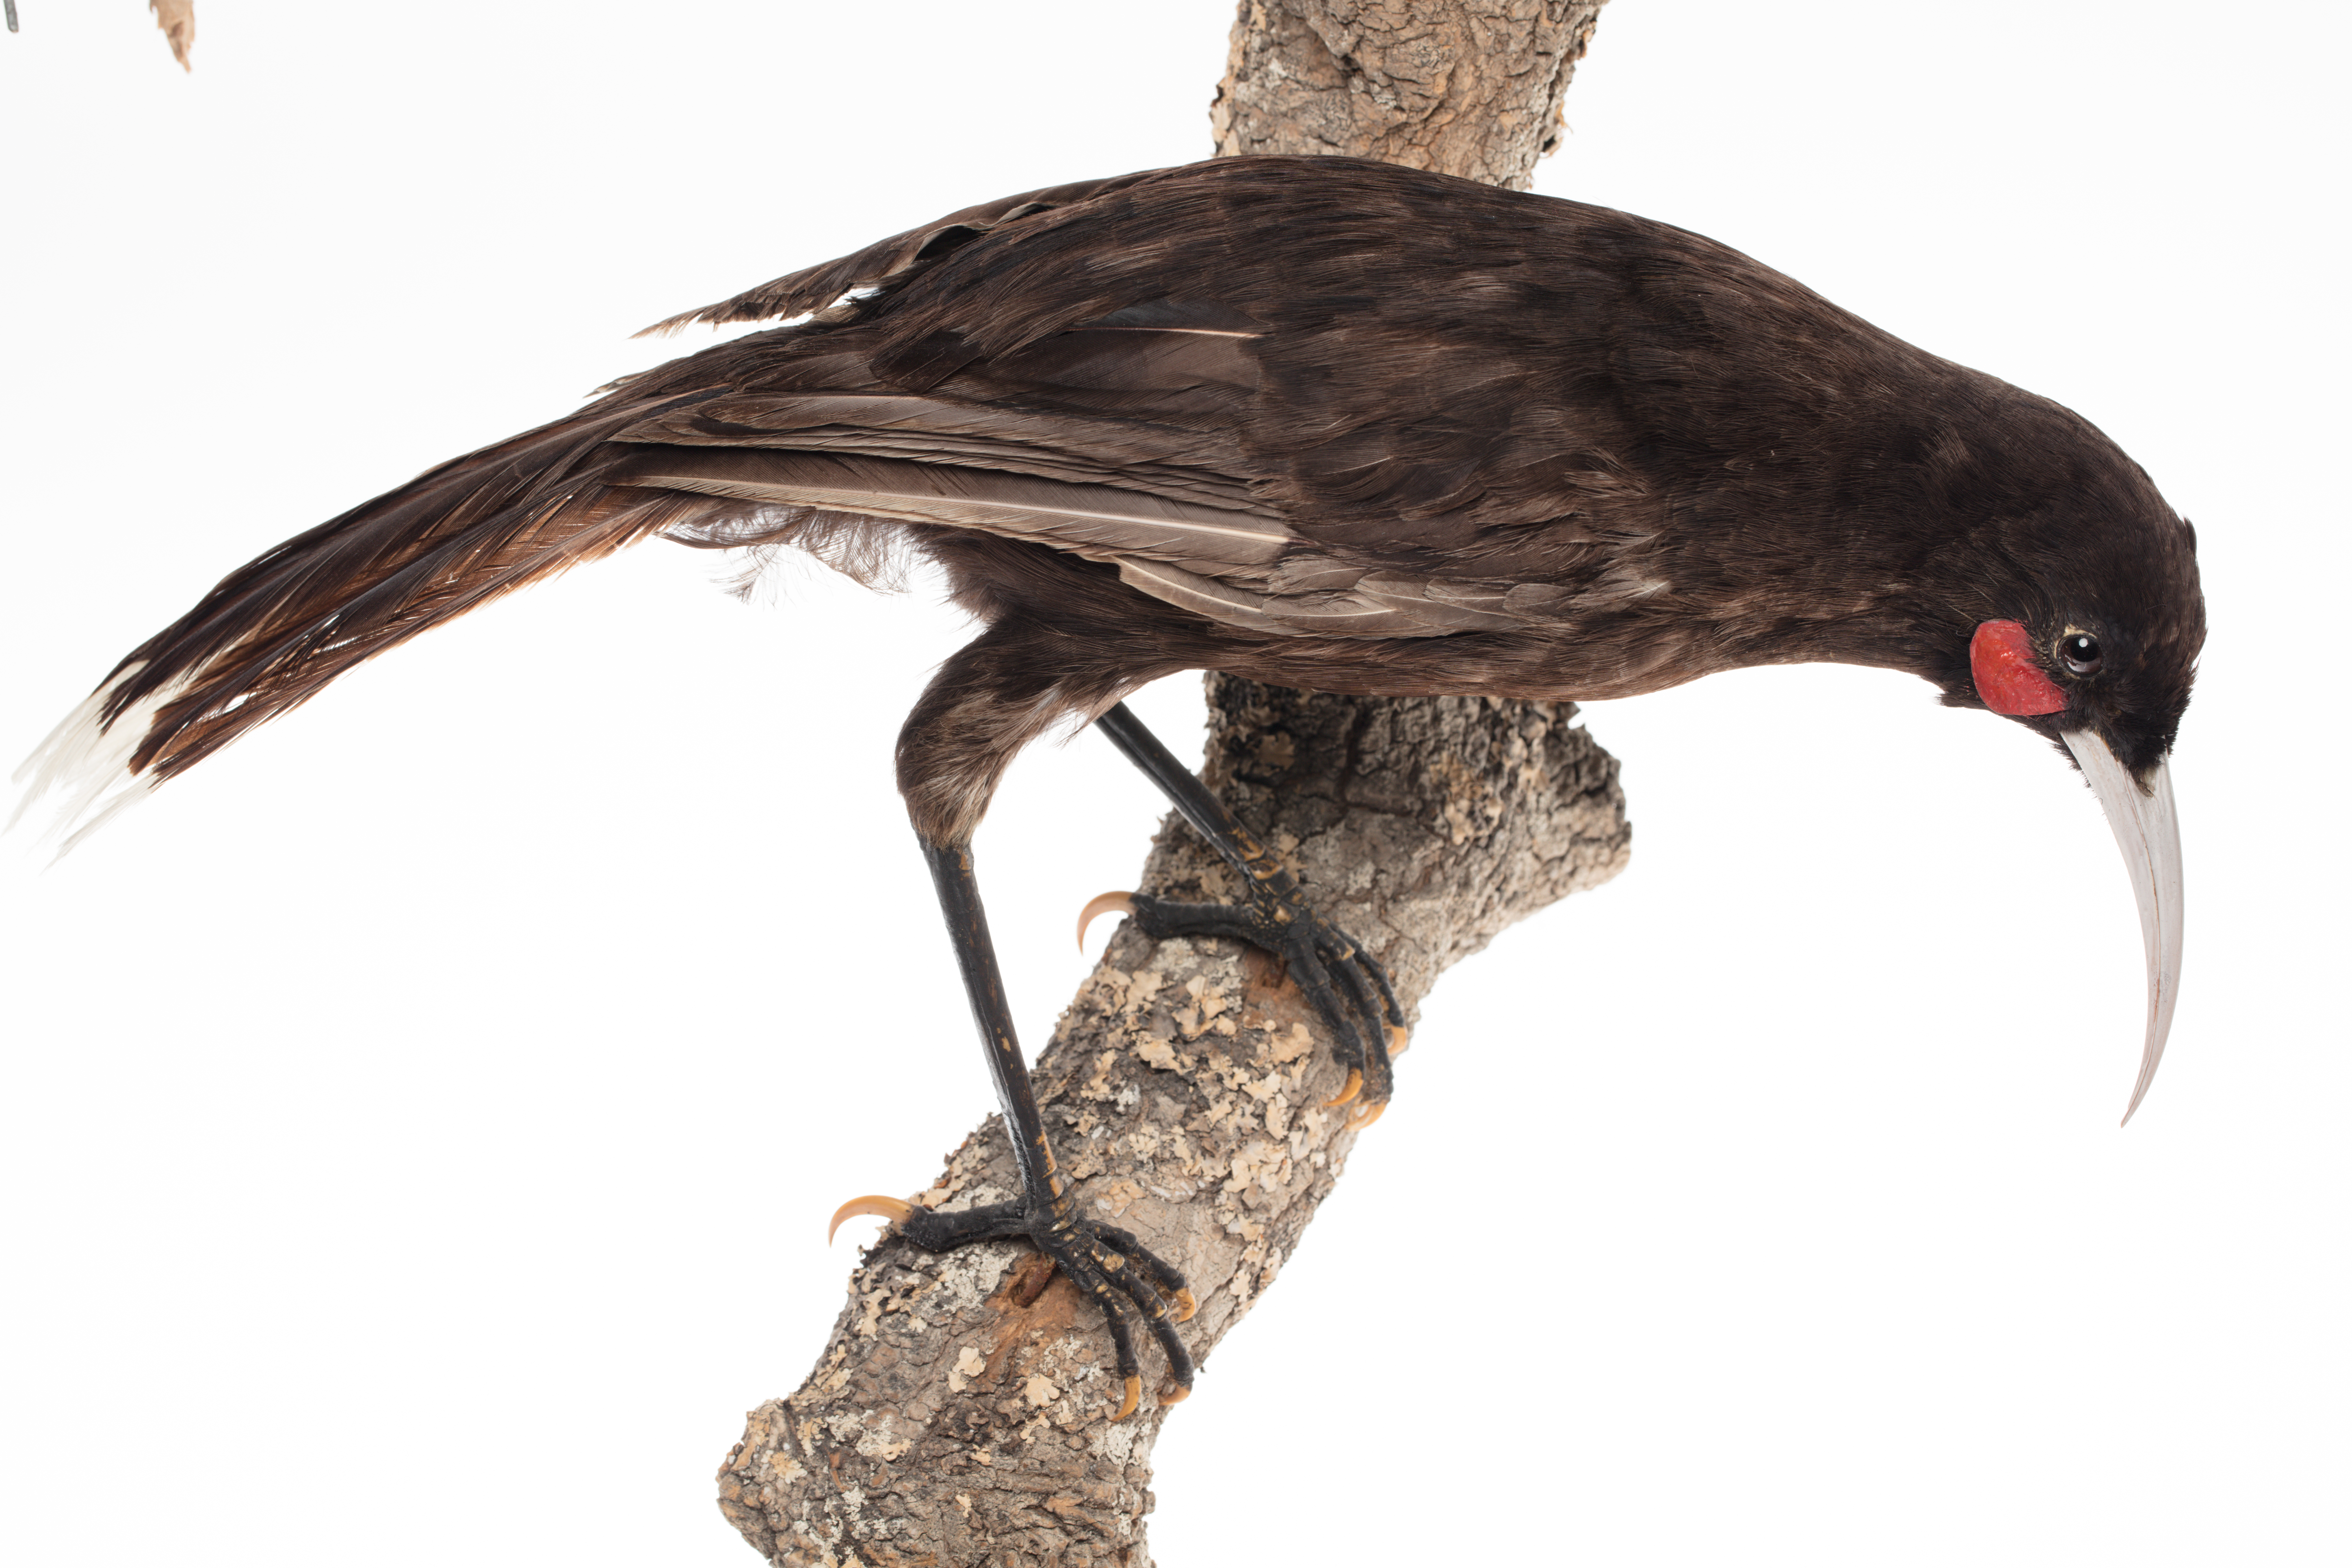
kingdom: Animalia
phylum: Chordata
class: Aves
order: Passeriformes
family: Callaeatidae
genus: Heteralocha
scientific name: Heteralocha acutirostris
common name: Huia
